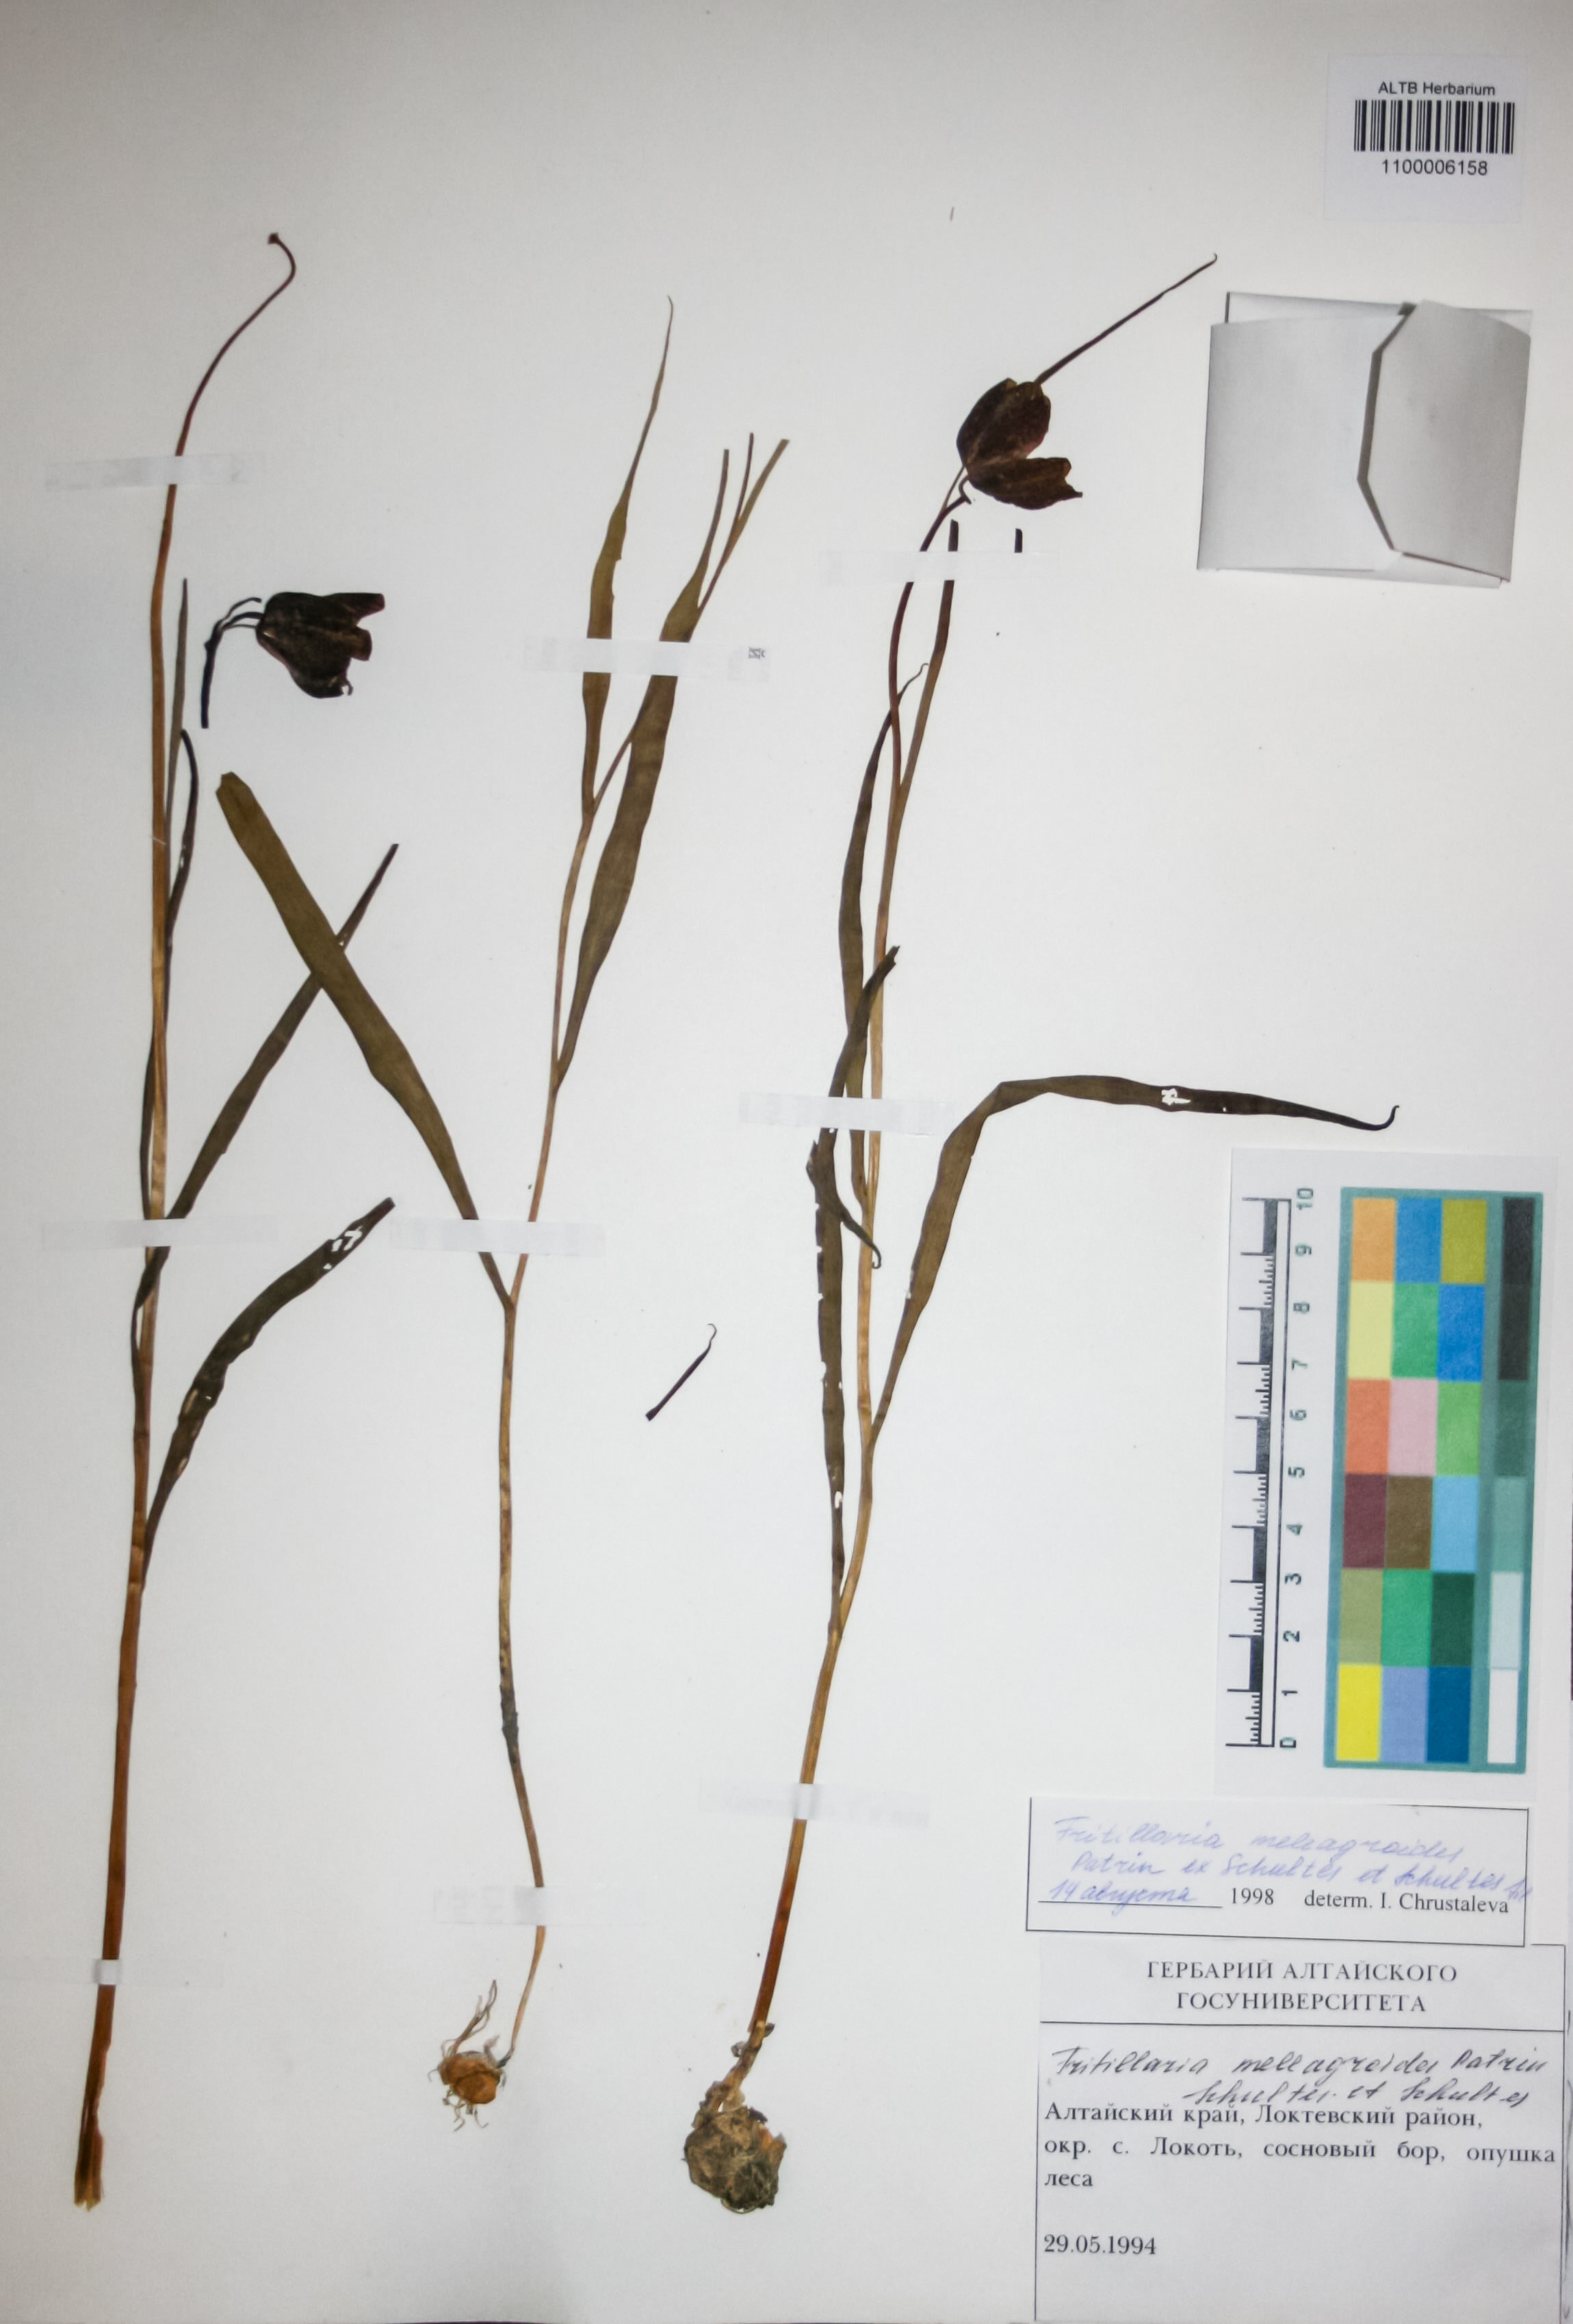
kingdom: Plantae
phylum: Tracheophyta
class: Liliopsida
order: Liliales
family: Liliaceae
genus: Fritillaria
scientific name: Fritillaria meleagroides
